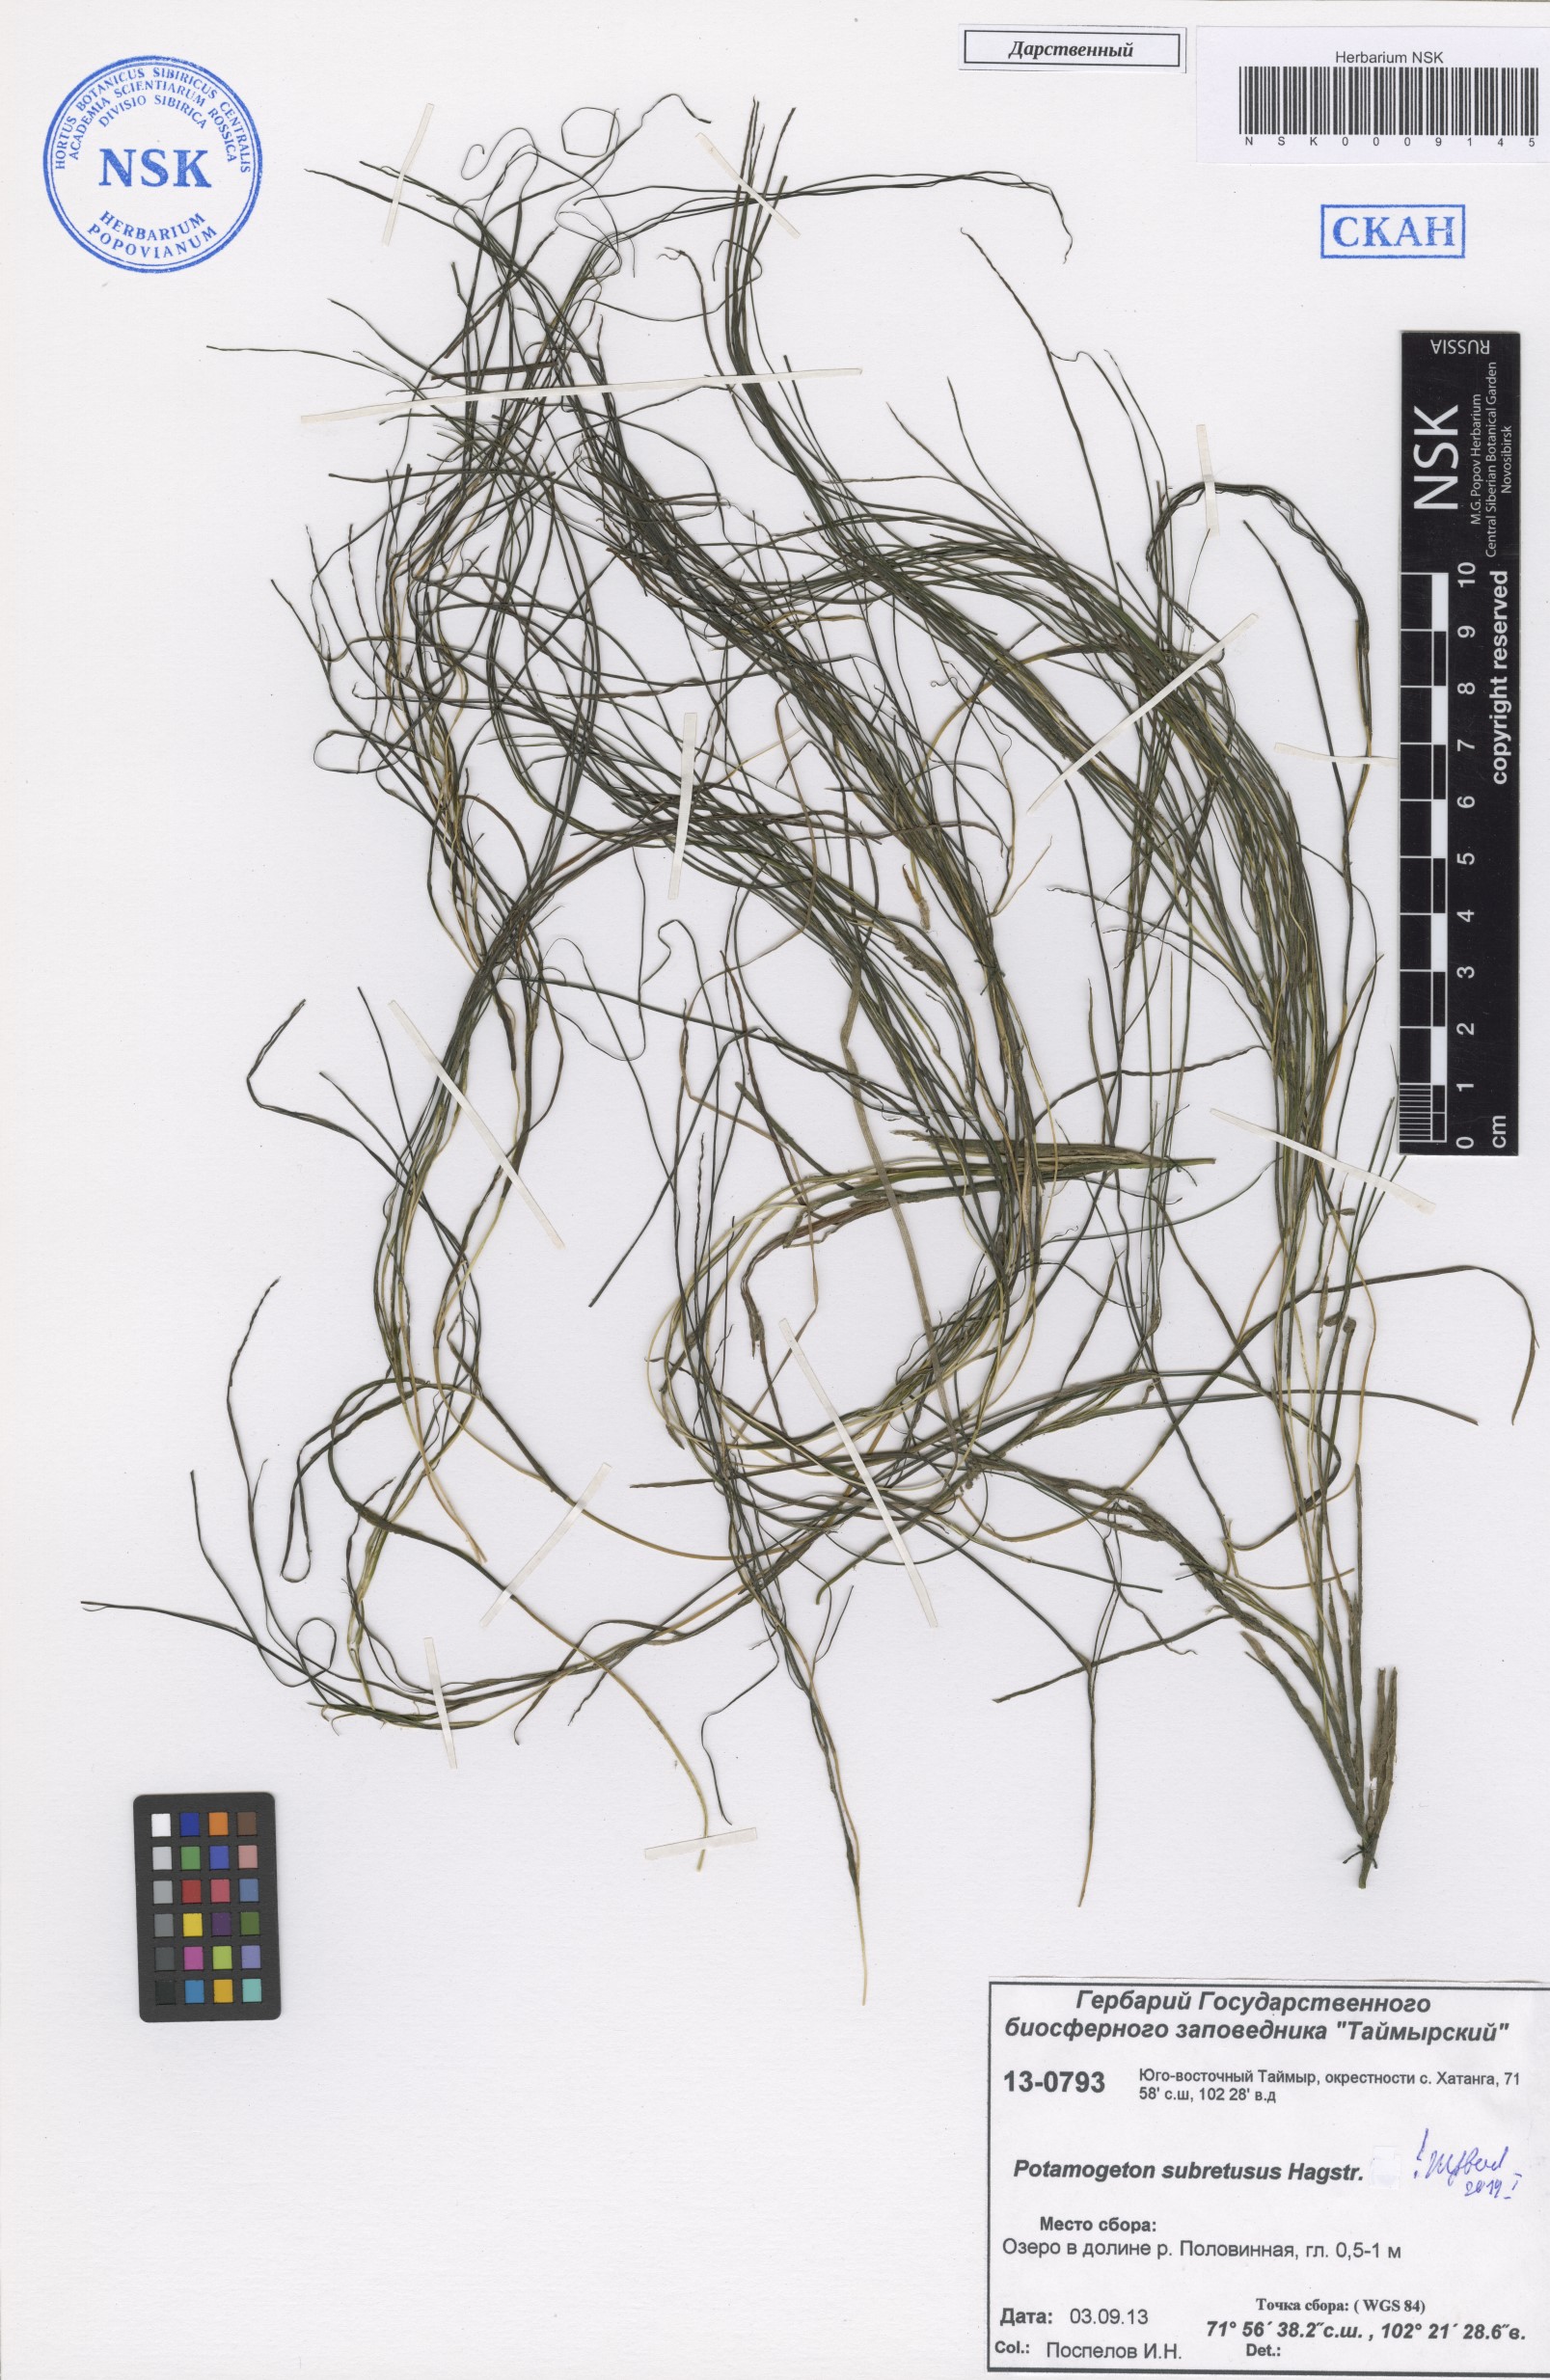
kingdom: Plantae
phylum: Tracheophyta
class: Liliopsida
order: Alismatales
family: Potamogetonaceae
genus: Stuckenia
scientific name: Stuckenia vaginata
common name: Big-sheathed pondweed
